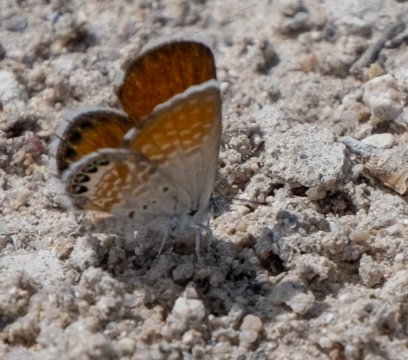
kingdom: Animalia
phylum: Arthropoda
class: Insecta
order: Lepidoptera
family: Lycaenidae
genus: Brephidium
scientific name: Brephidium exilis
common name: Western Pygmy-Blue
